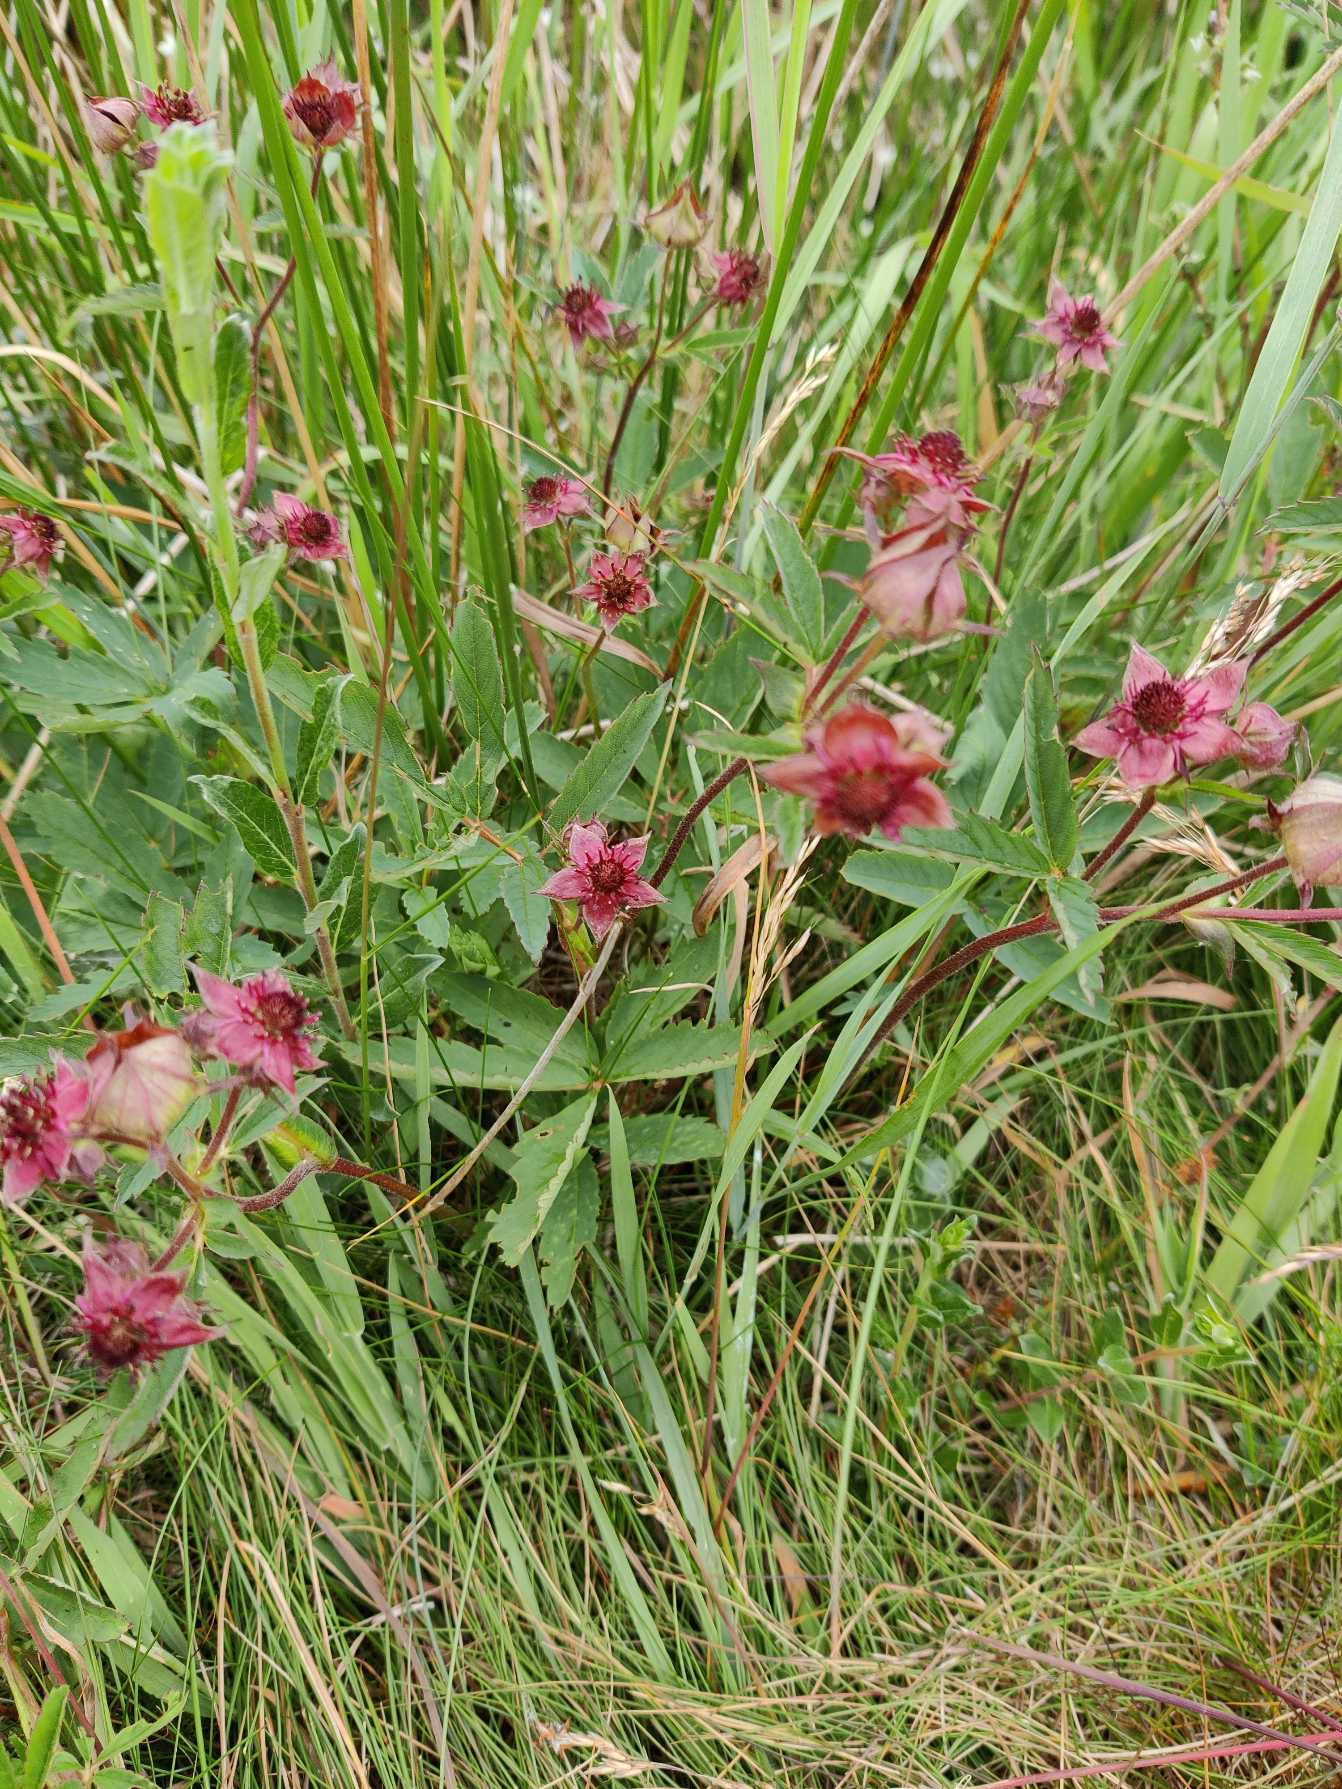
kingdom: Plantae
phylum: Tracheophyta
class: Magnoliopsida
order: Rosales
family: Rosaceae
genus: Comarum
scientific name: Comarum palustre
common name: Kragefod
